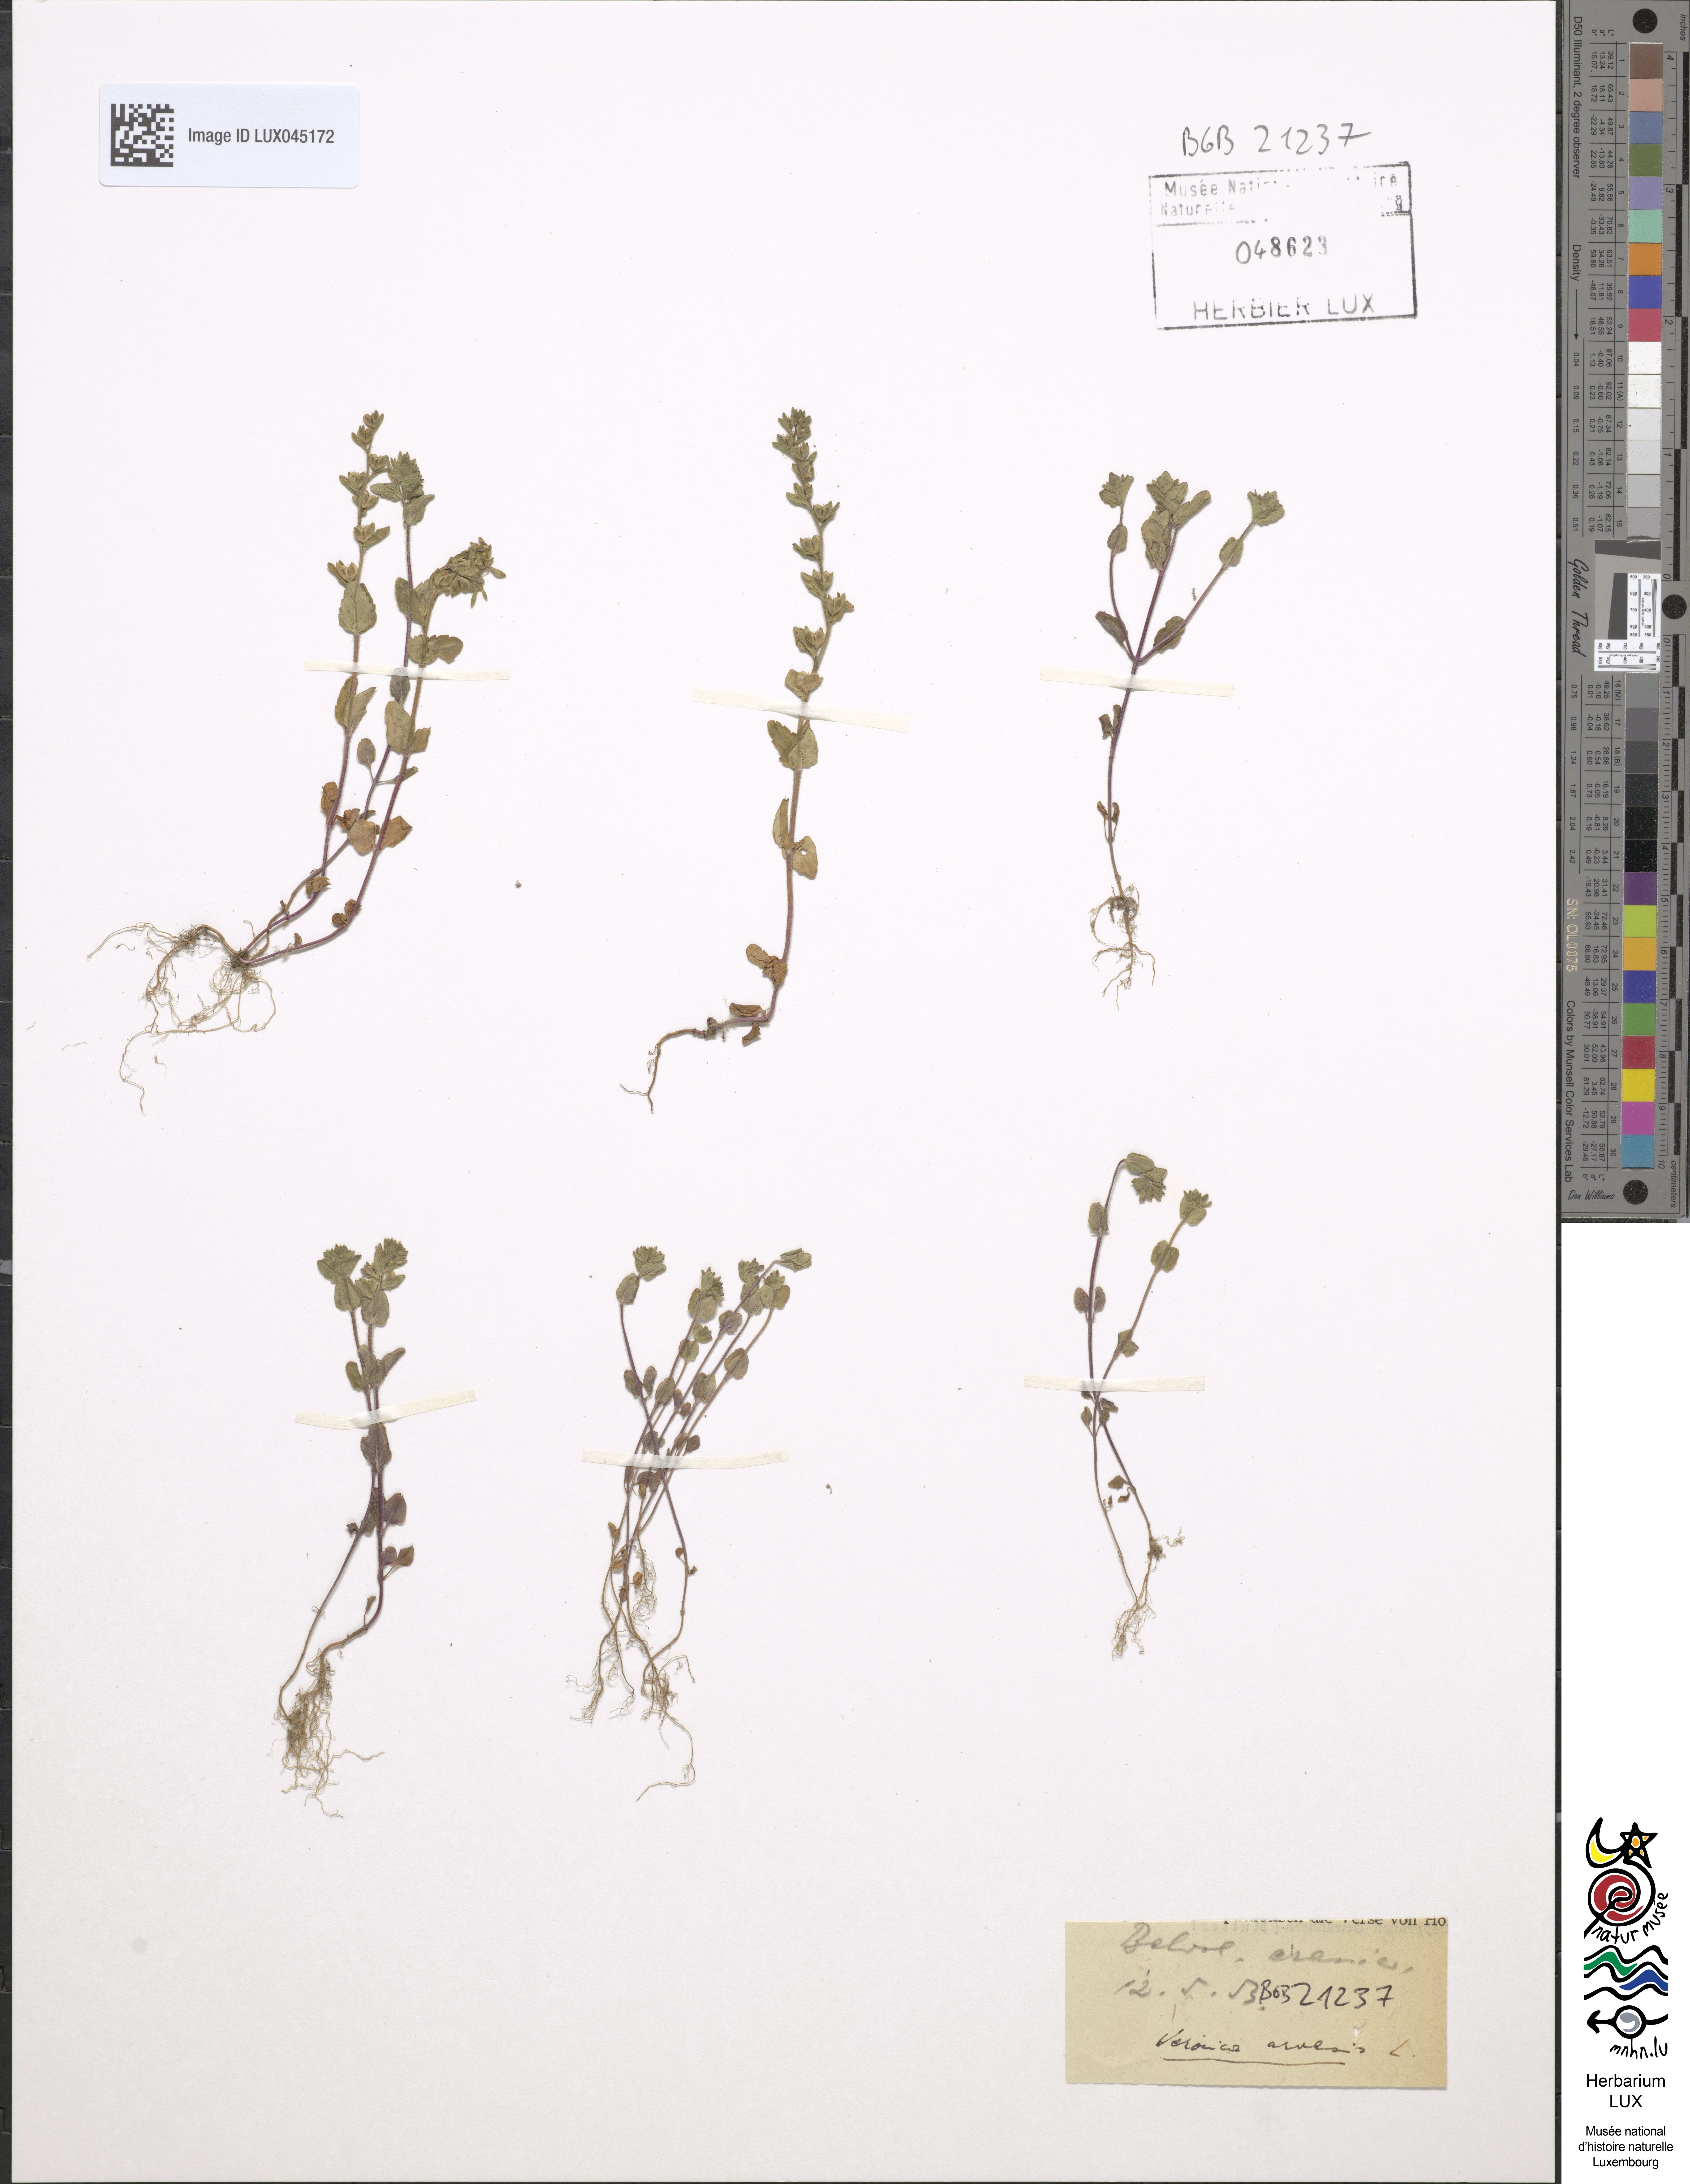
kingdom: Plantae
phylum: Tracheophyta
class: Magnoliopsida
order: Lamiales
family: Plantaginaceae
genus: Veronica
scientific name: Veronica arvensis
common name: Corn speedwell
